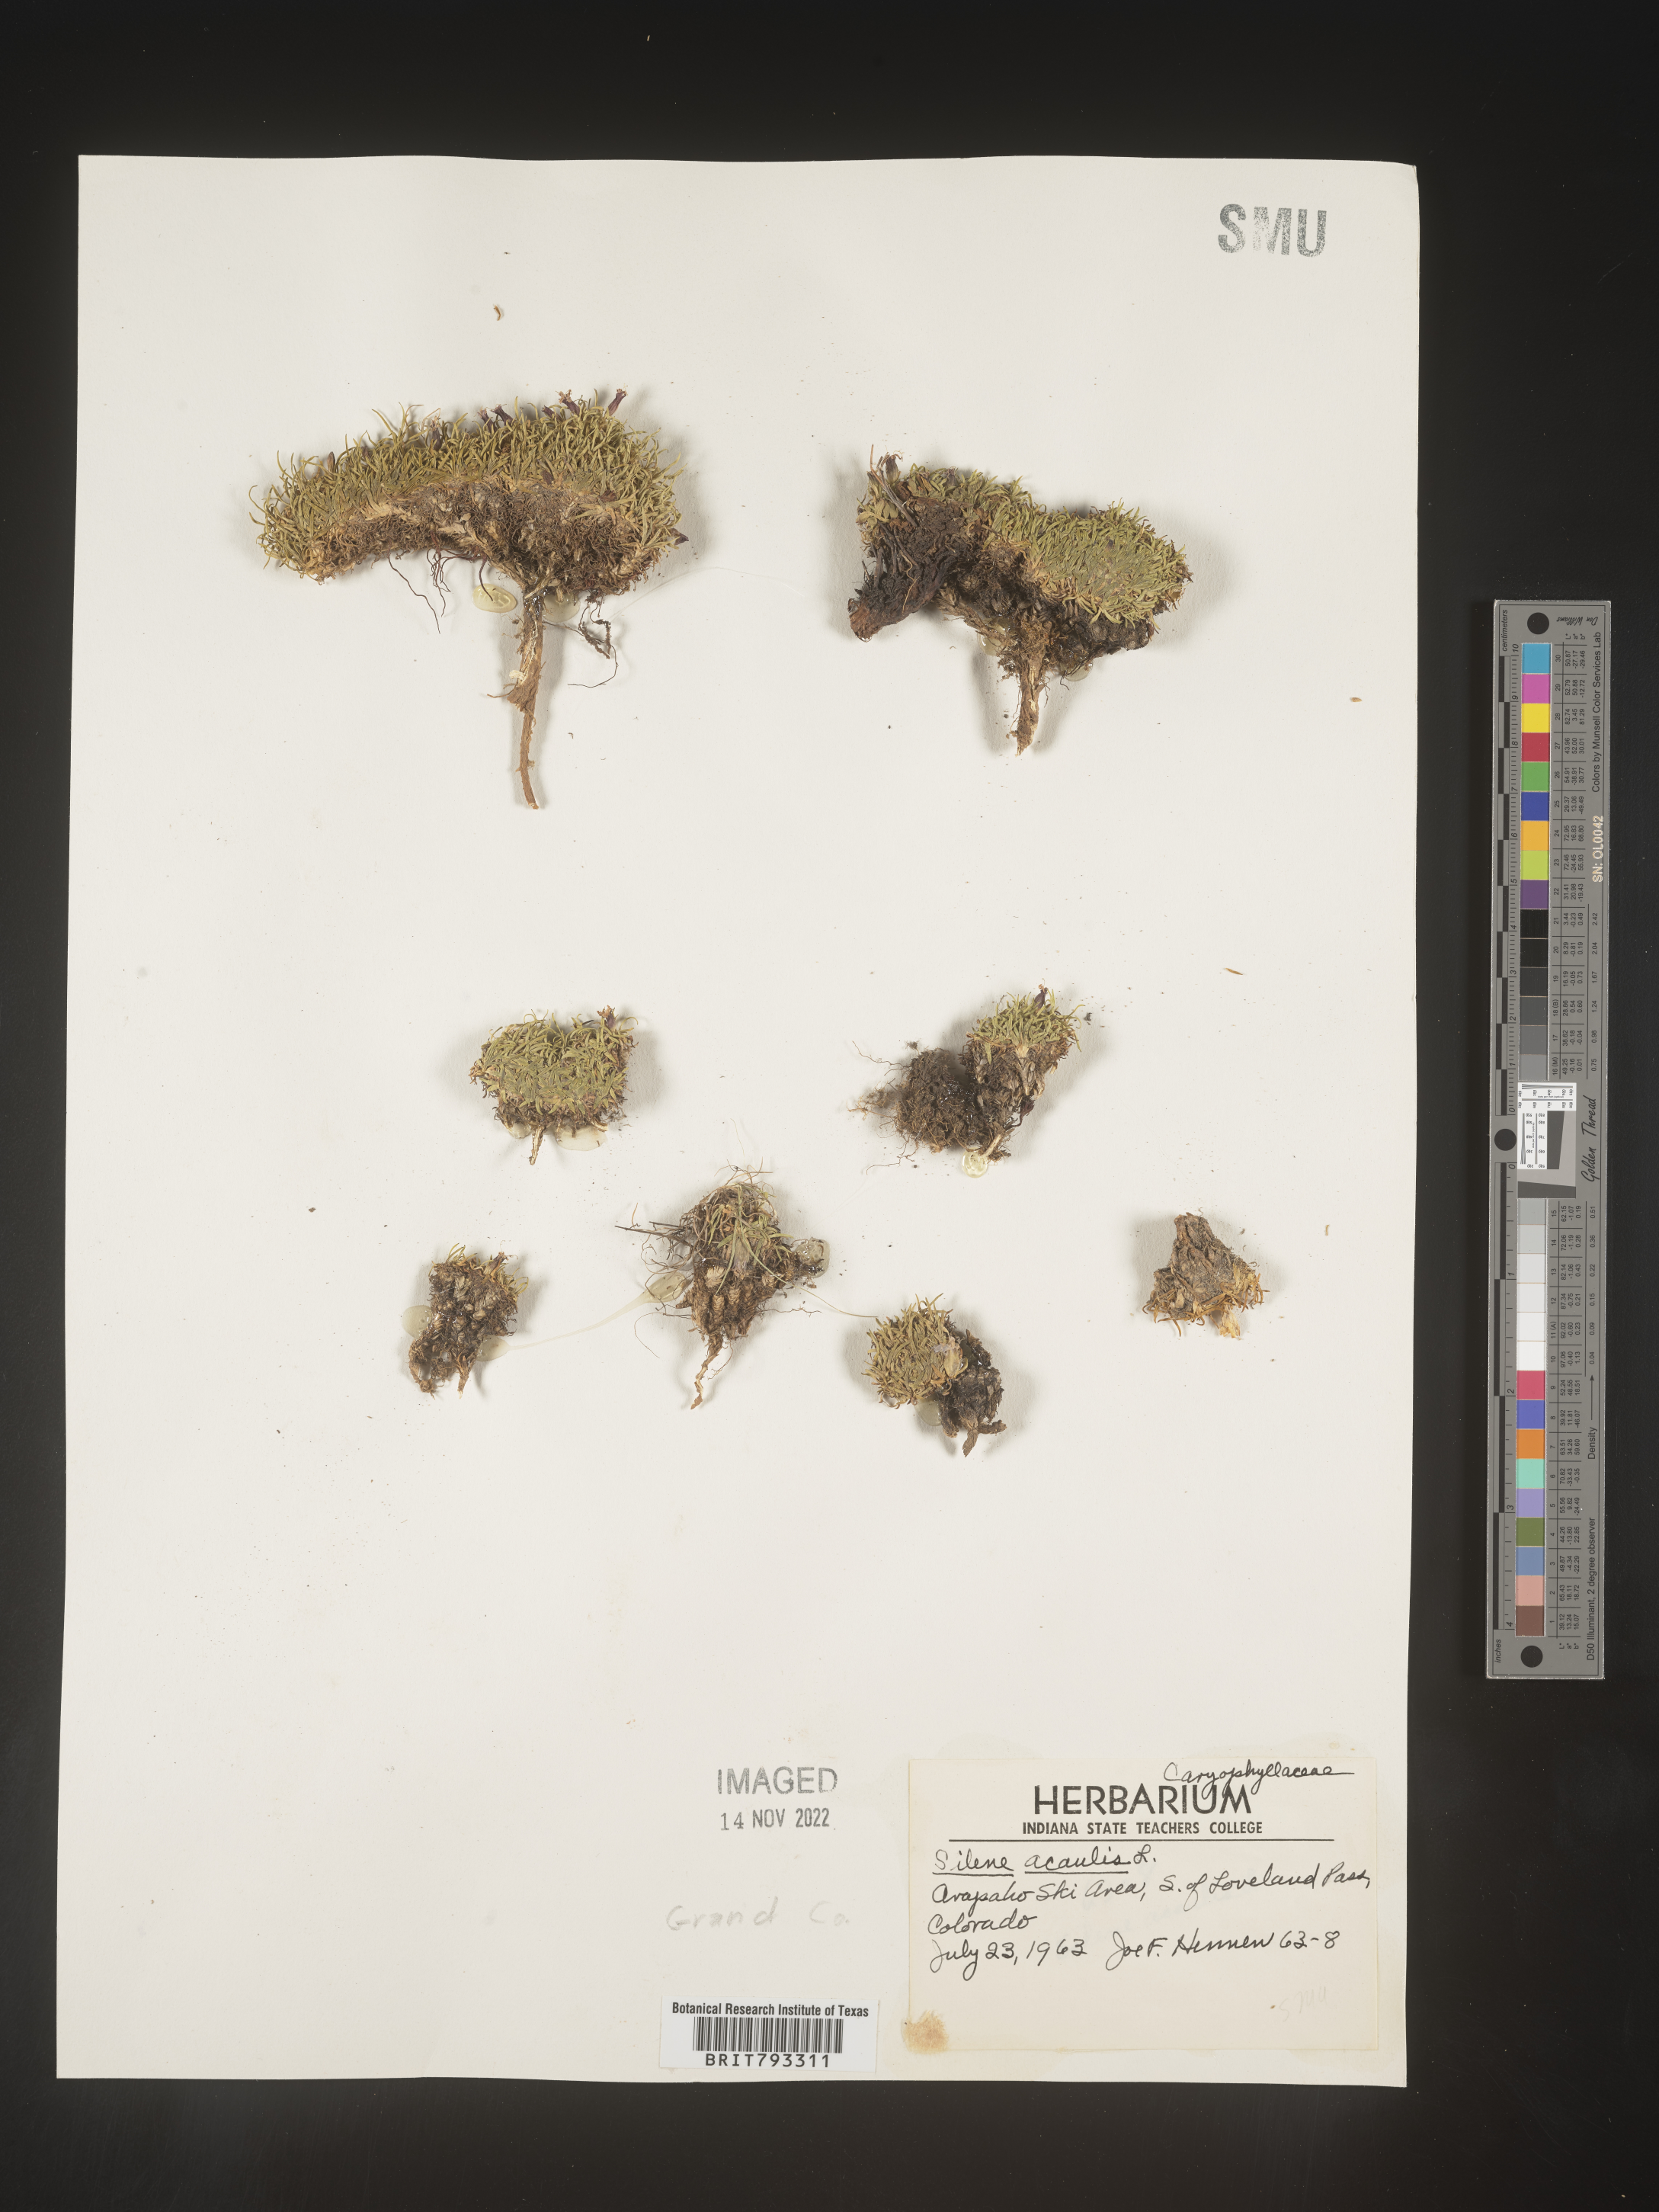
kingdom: Plantae
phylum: Tracheophyta
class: Magnoliopsida
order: Caryophyllales
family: Caryophyllaceae
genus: Silene
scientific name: Silene acaulis
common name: Moss campion
